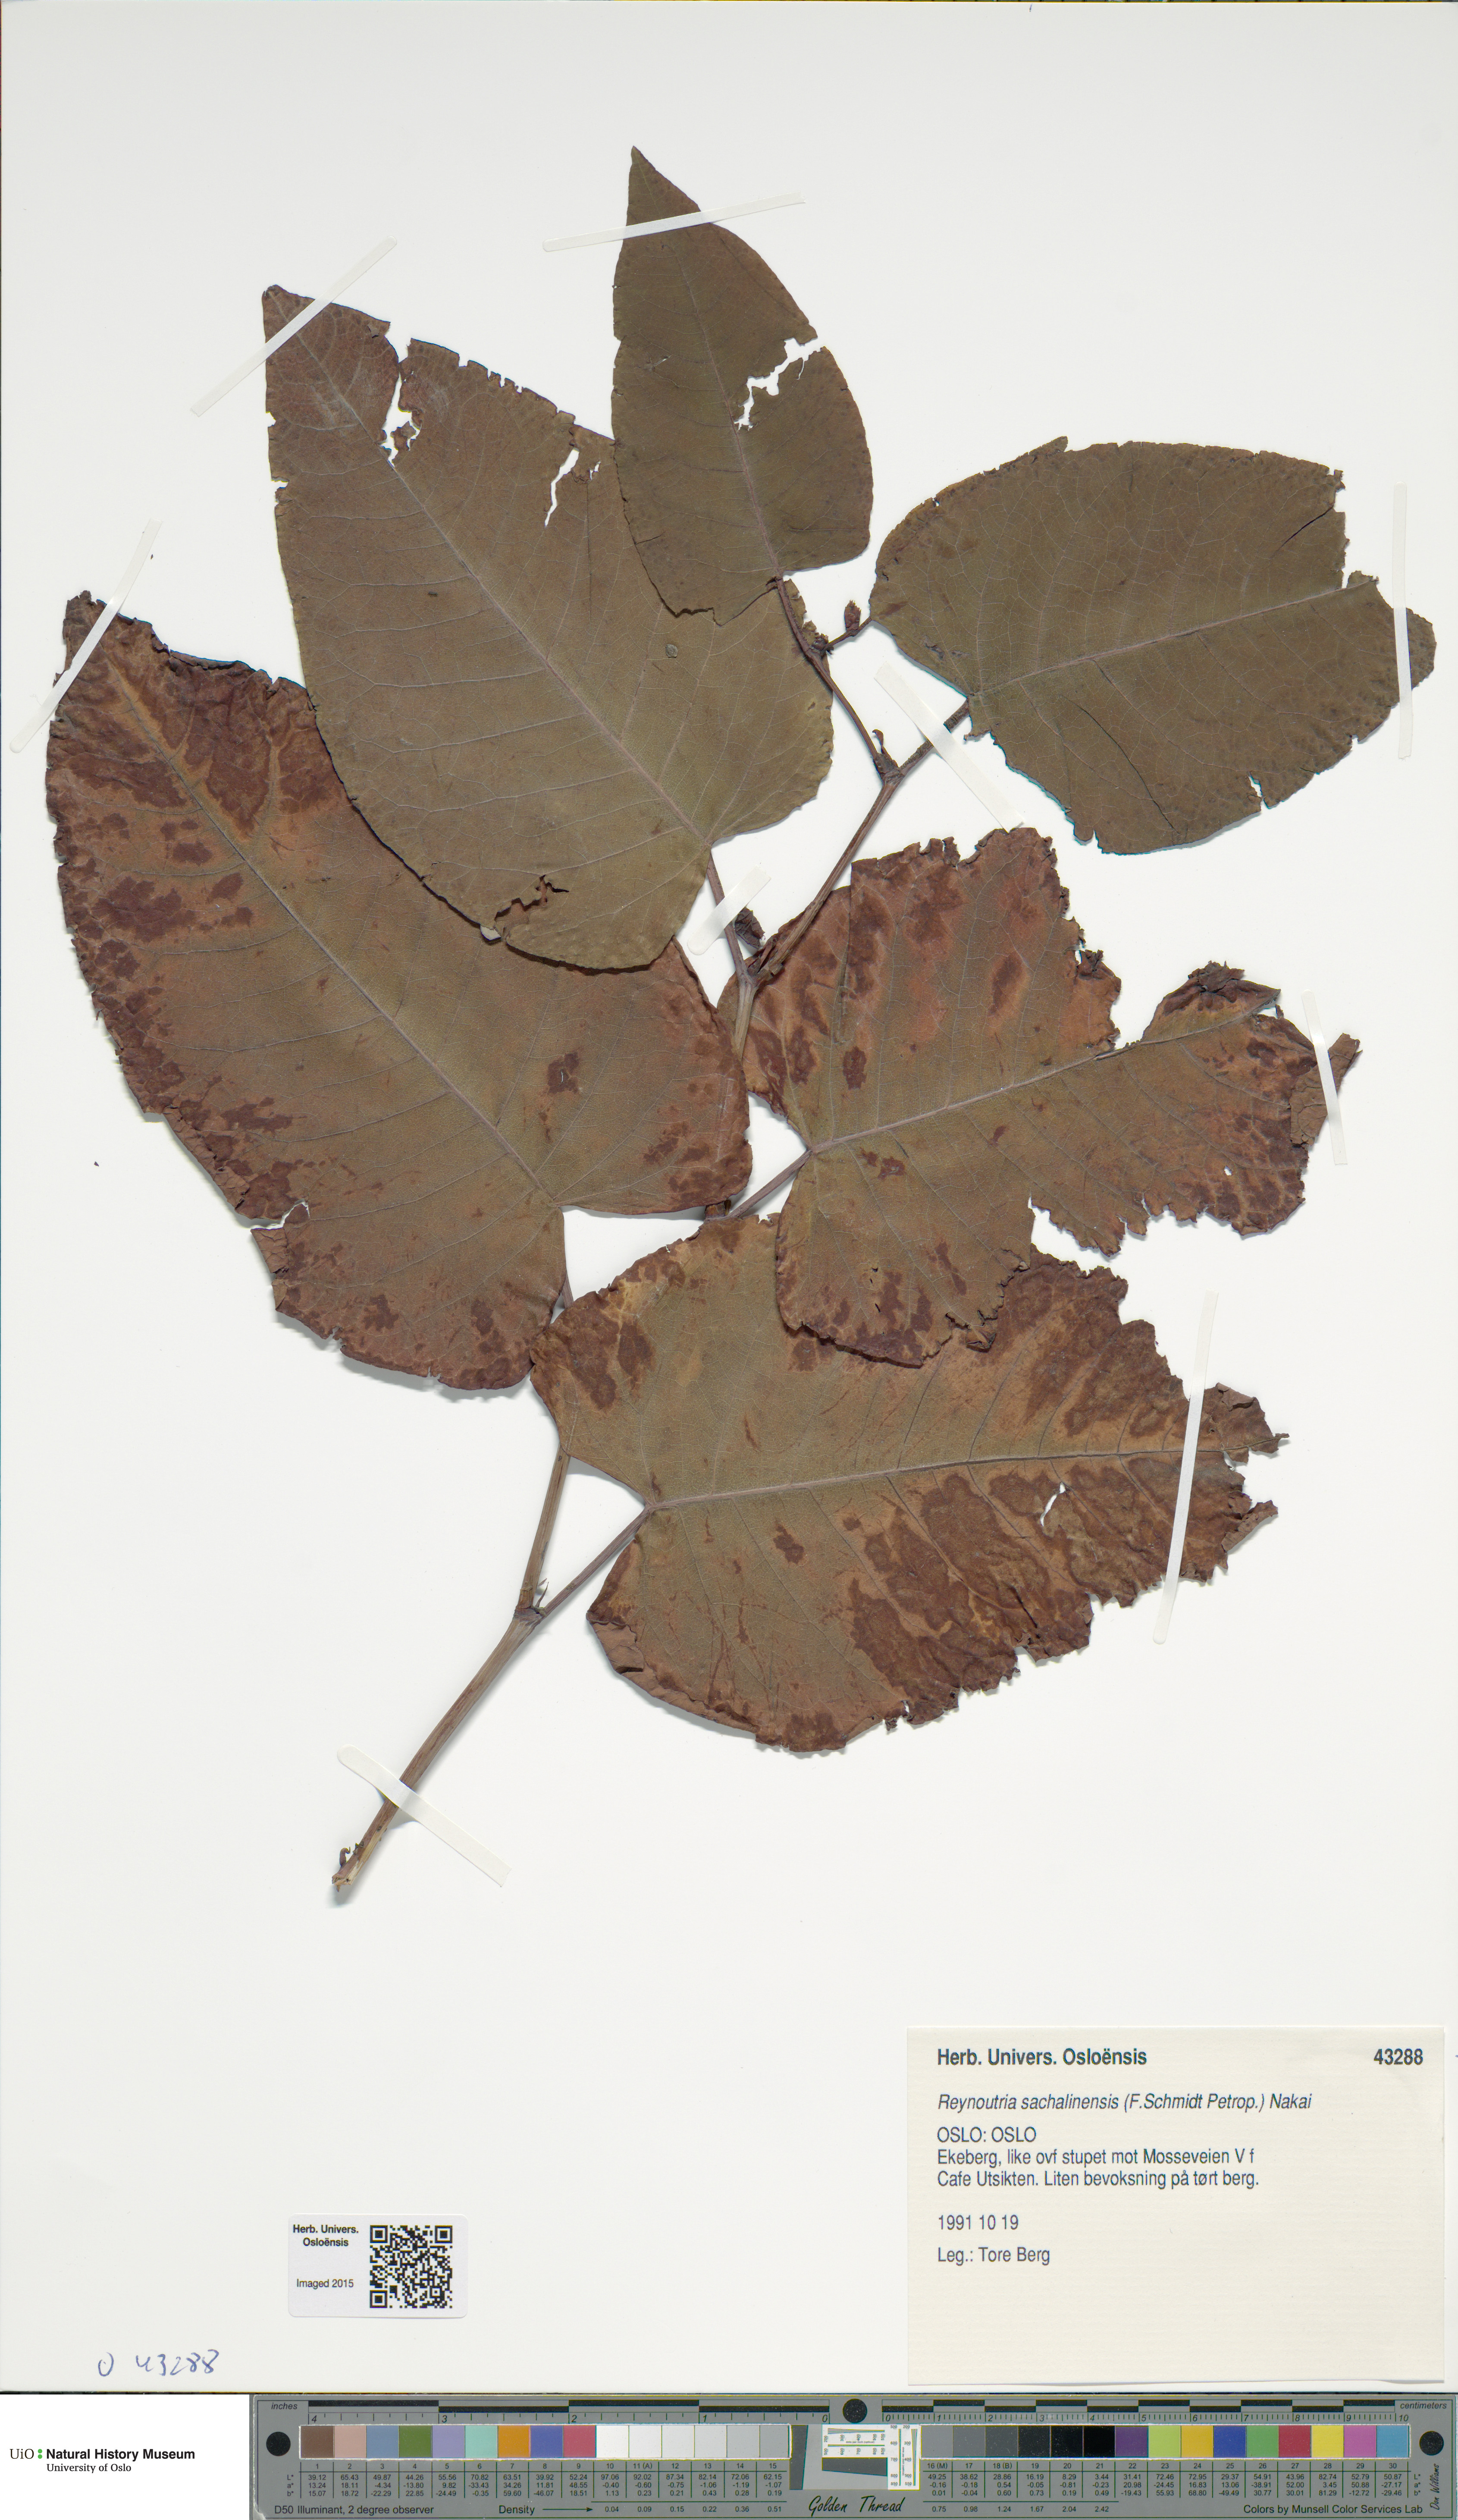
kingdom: Plantae
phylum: Tracheophyta
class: Magnoliopsida
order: Caryophyllales
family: Polygonaceae
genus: Reynoutria
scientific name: Reynoutria sachalinensis
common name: Giant knotweed
